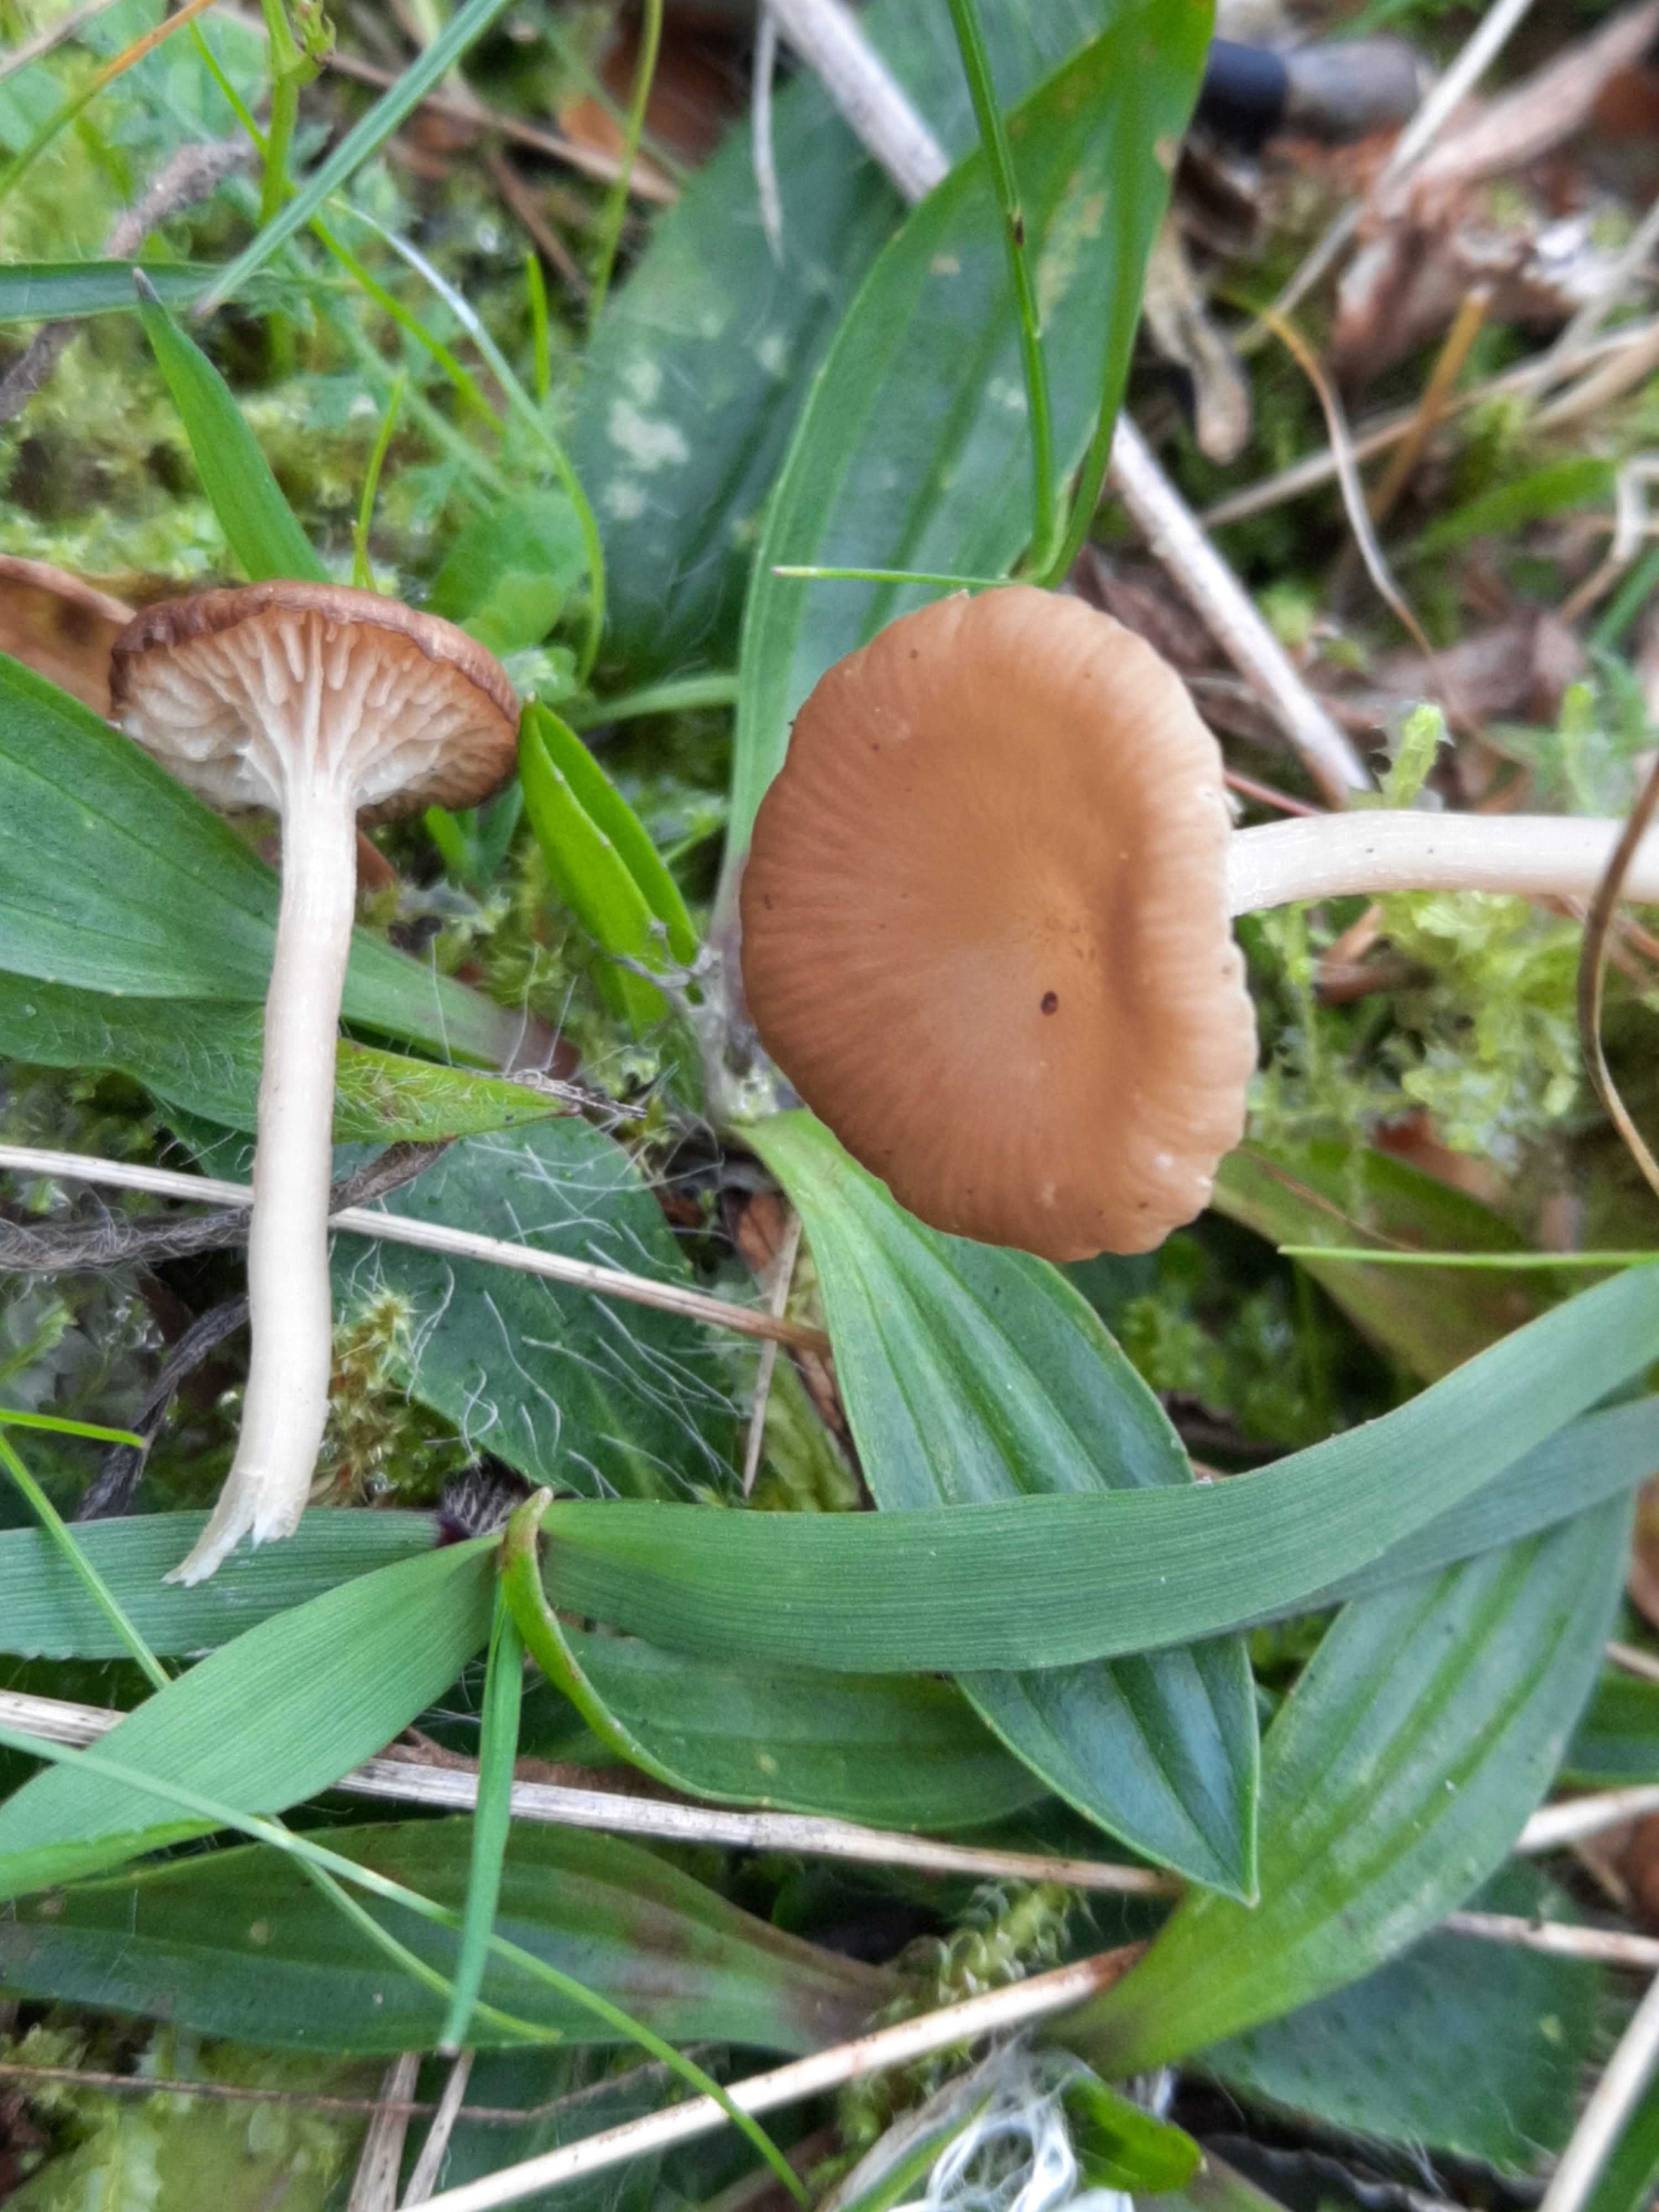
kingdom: Fungi
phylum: Basidiomycota
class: Agaricomycetes
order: Agaricales
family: Tricholomataceae
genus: Gamundia
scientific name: Gamundia xerophila
